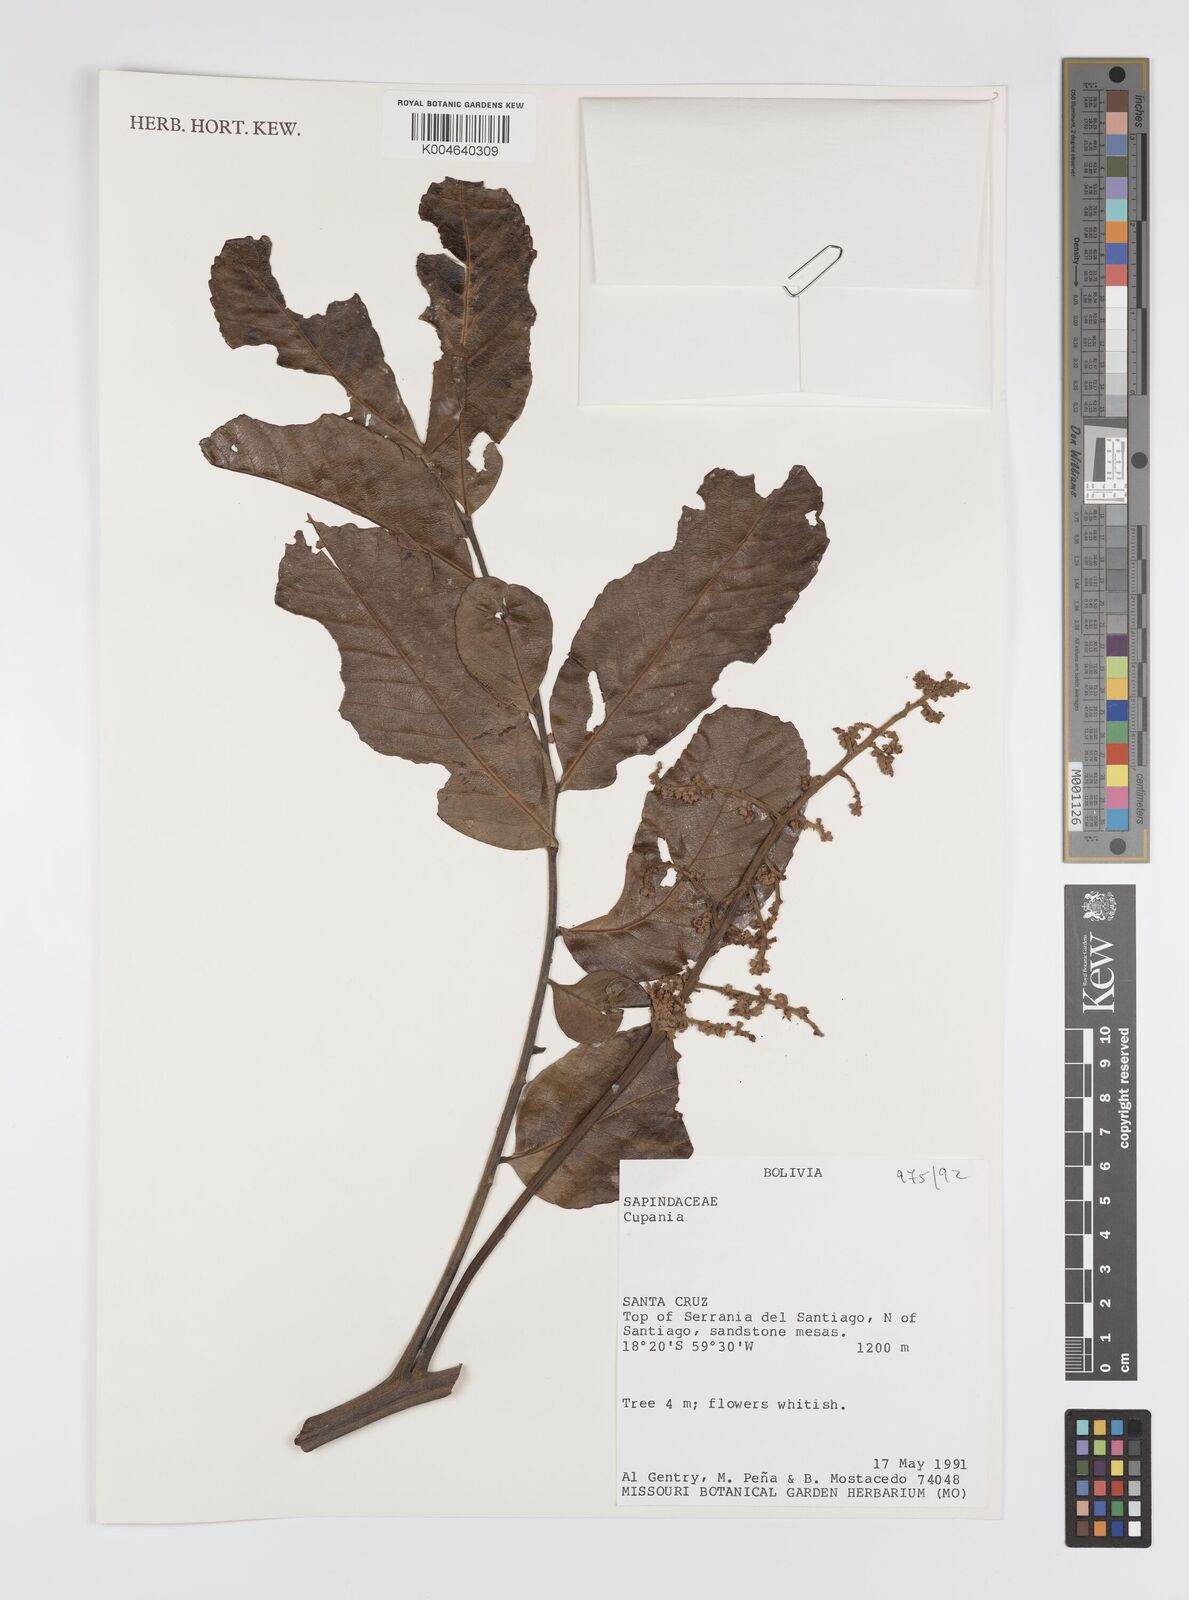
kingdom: Plantae
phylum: Tracheophyta
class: Magnoliopsida
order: Sapindales
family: Sapindaceae
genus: Cupania
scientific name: Cupania
